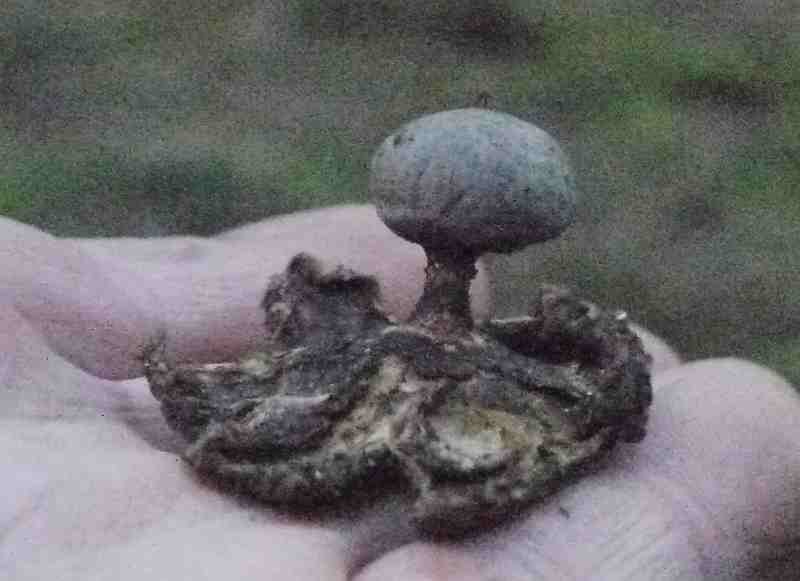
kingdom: Fungi
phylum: Basidiomycota
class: Agaricomycetes
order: Geastrales
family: Geastraceae
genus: Geastrum
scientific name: Geastrum pectinatum
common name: stilket stjernebold
